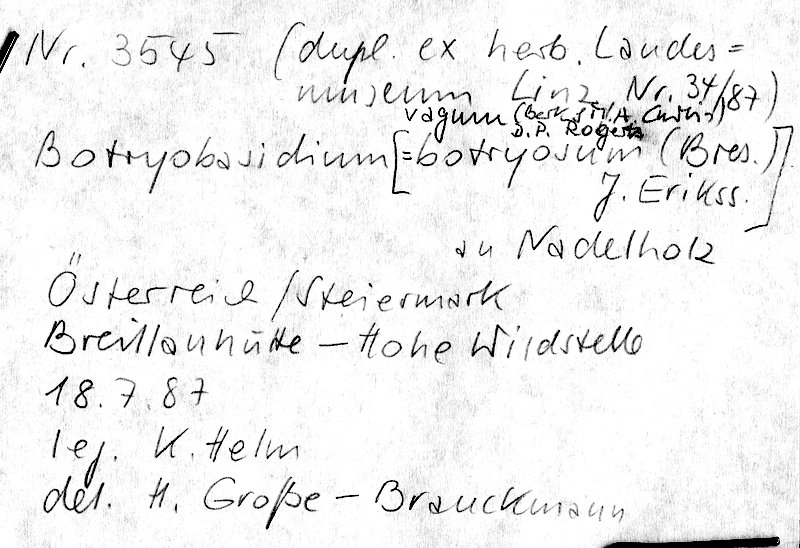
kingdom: Fungi
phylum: Basidiomycota
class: Agaricomycetes
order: Cantharellales
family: Botryobasidiaceae
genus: Botryobasidium
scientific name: Botryobasidium vagum
